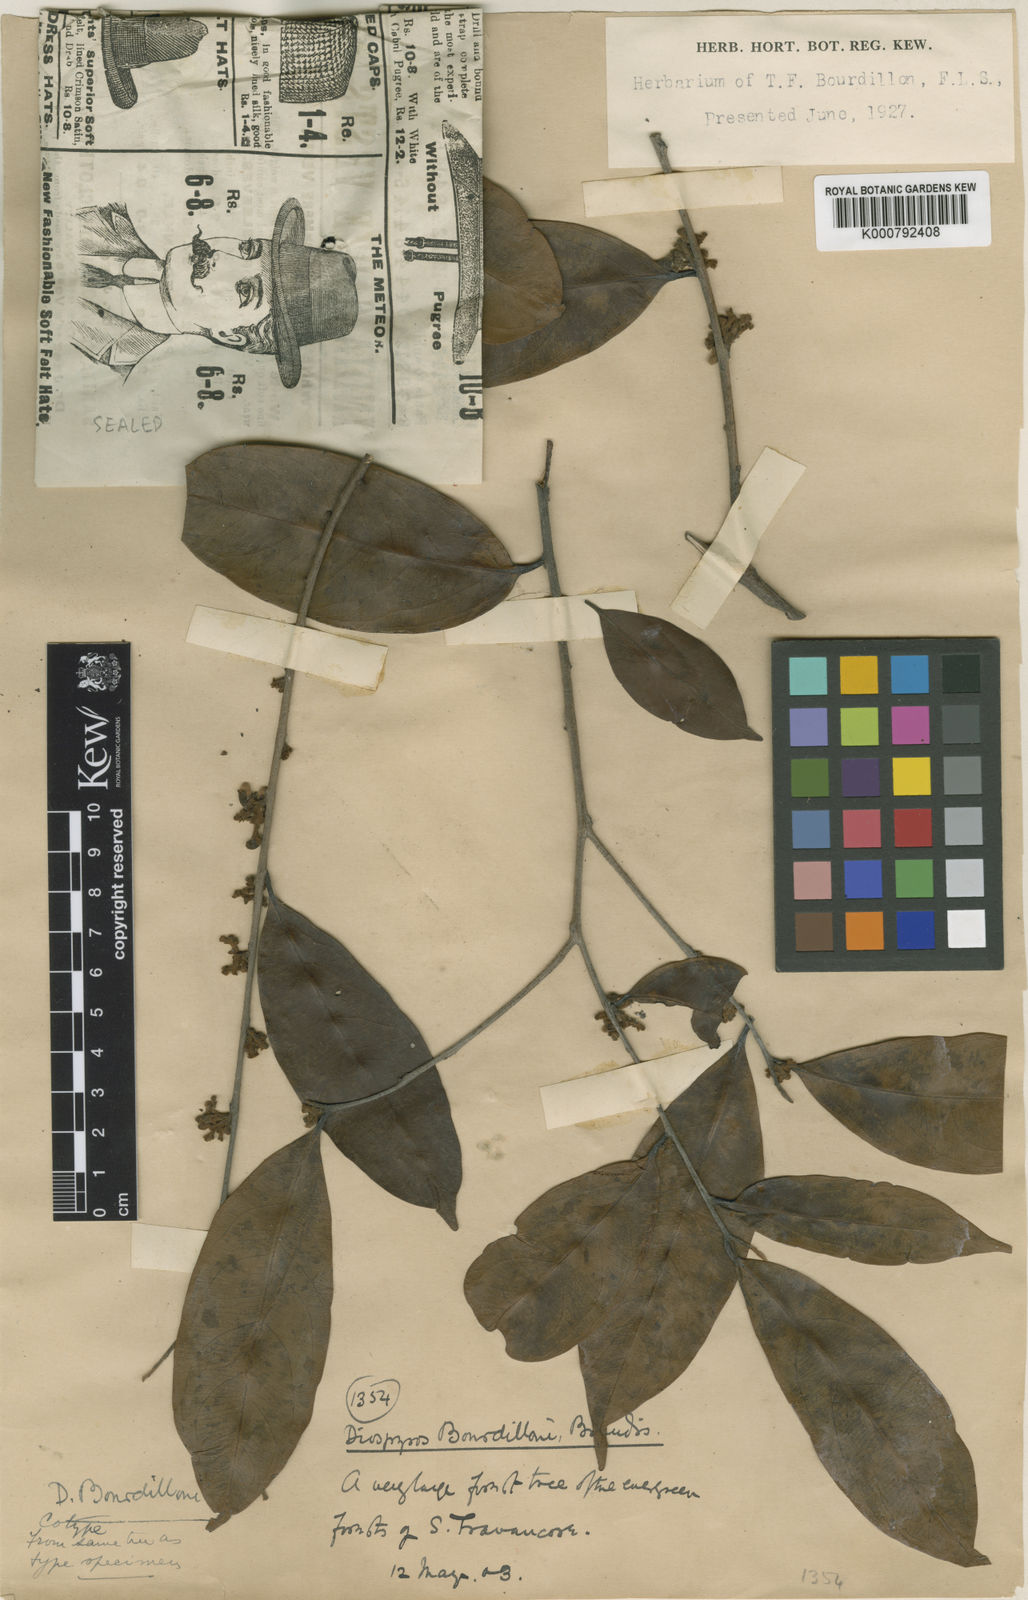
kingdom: Plantae
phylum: Tracheophyta
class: Magnoliopsida
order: Ericales
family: Ebenaceae
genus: Diospyros
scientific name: Diospyros bourdillonii
